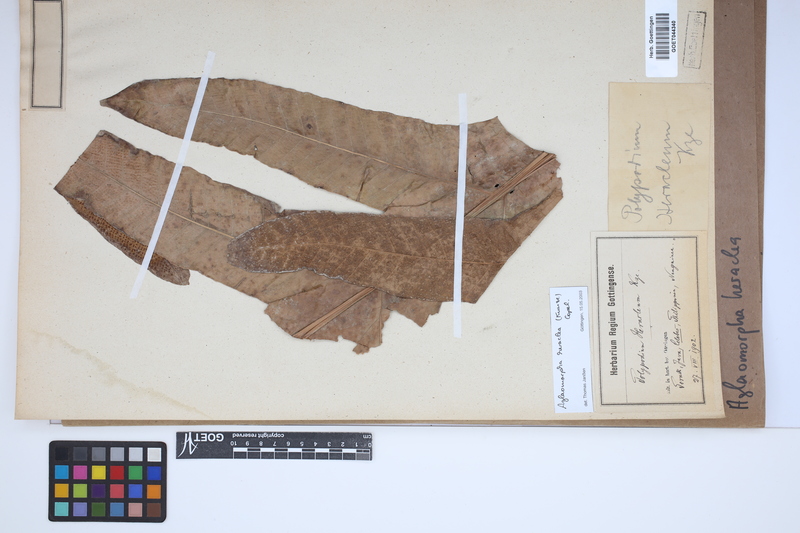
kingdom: Plantae
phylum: Tracheophyta
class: Polypodiopsida
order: Polypodiales
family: Polypodiaceae
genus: Drynaria
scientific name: Drynaria heraclea
